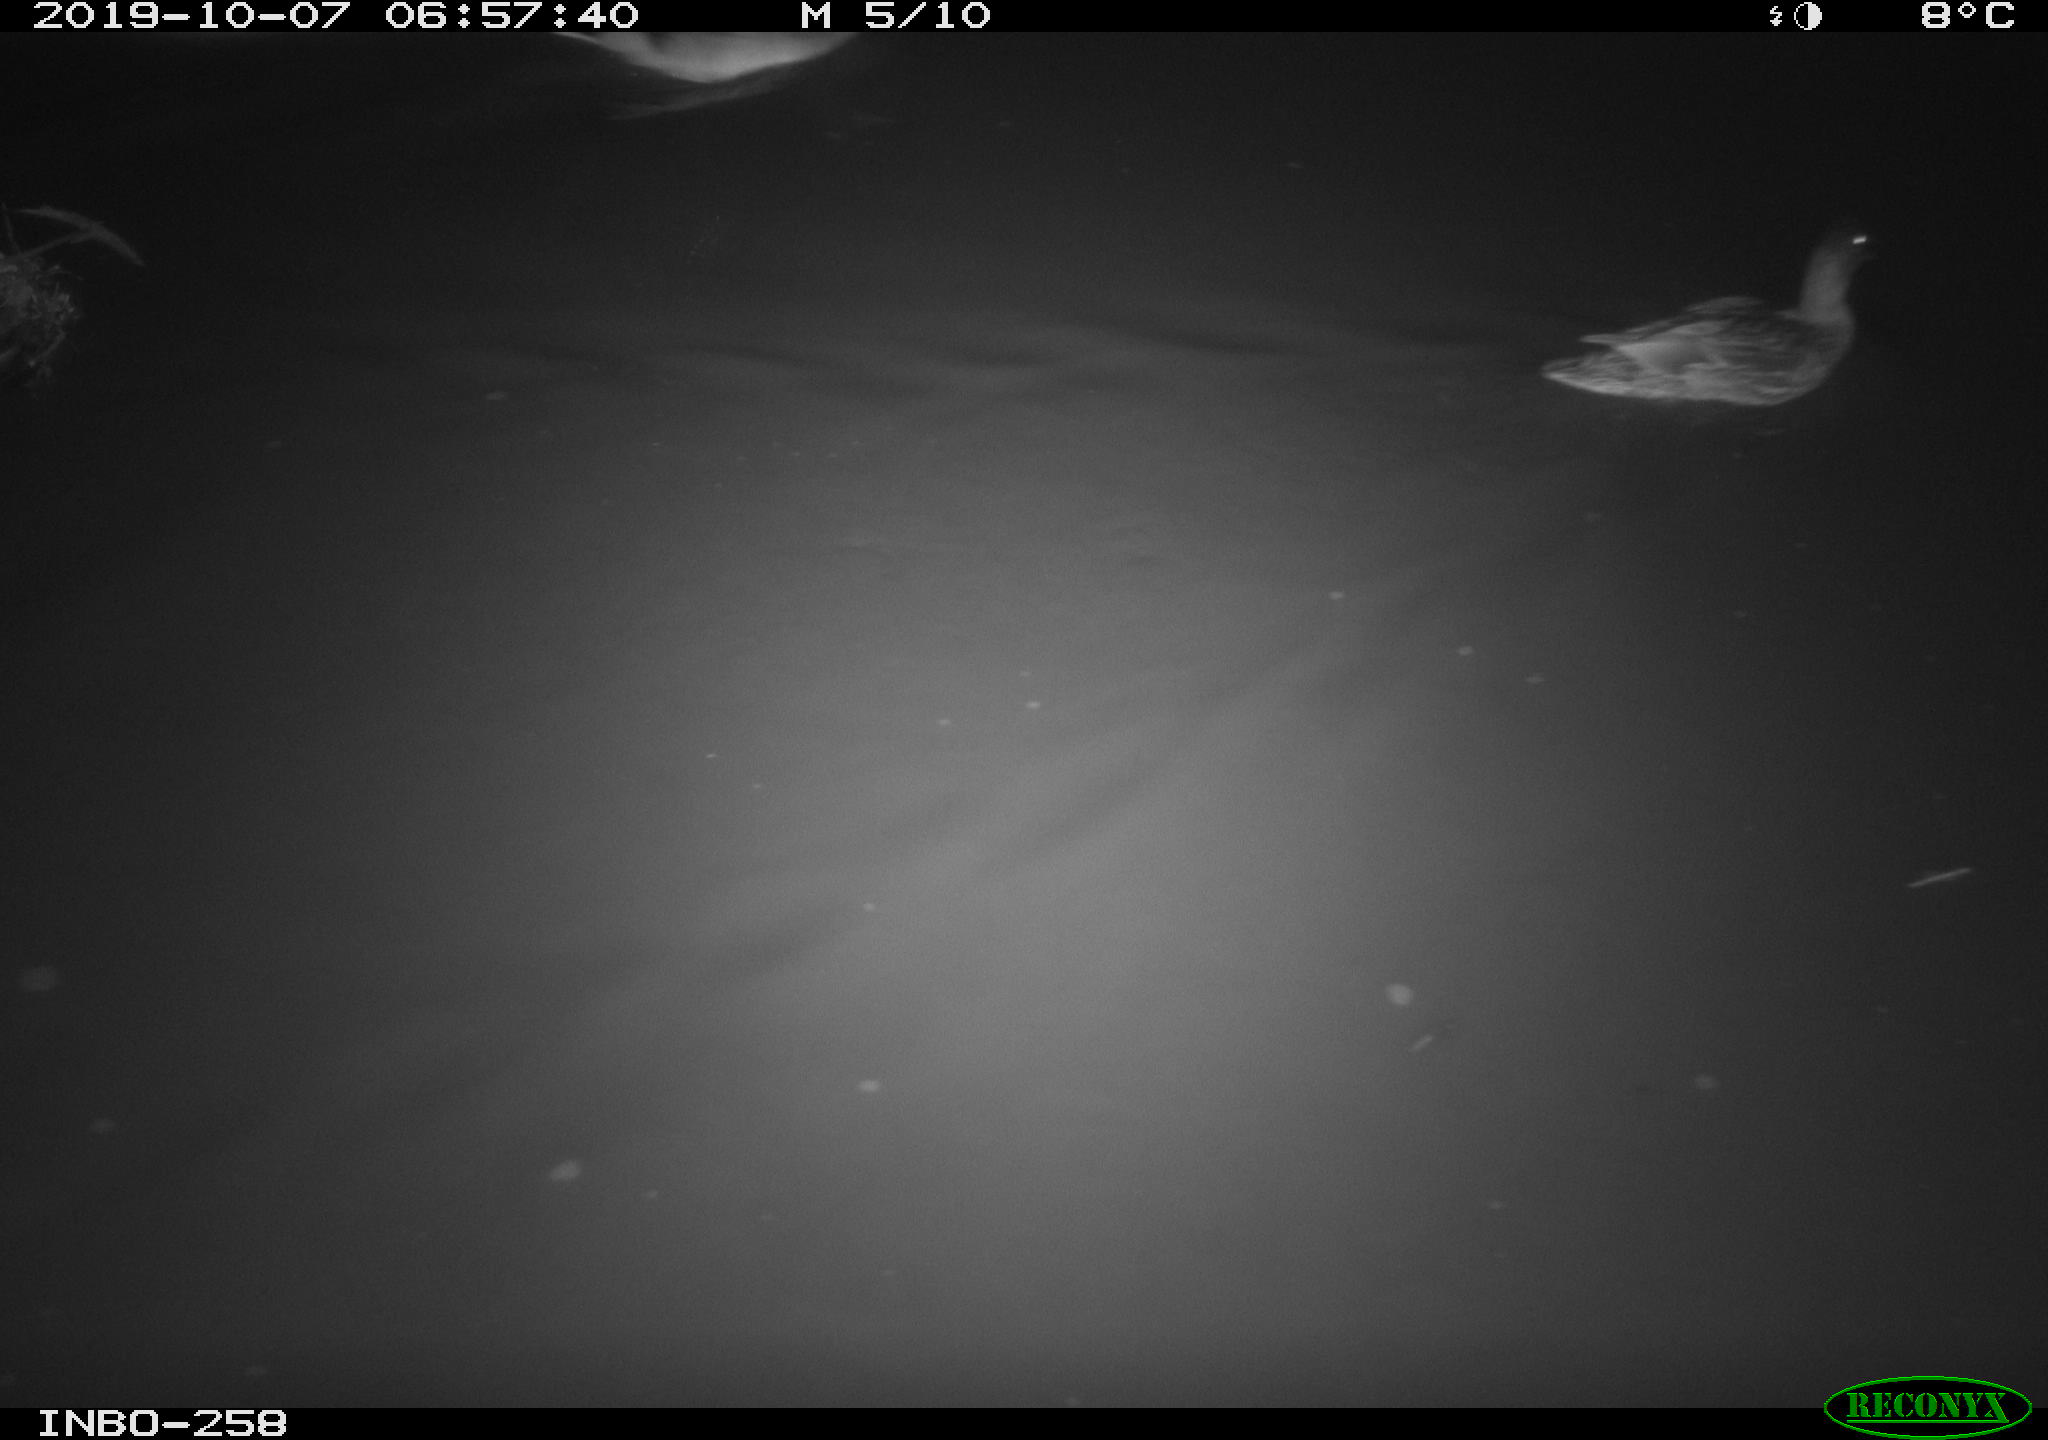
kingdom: Animalia
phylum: Chordata
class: Aves
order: Anseriformes
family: Anatidae
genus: Anas
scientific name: Anas platyrhynchos
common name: Mallard
